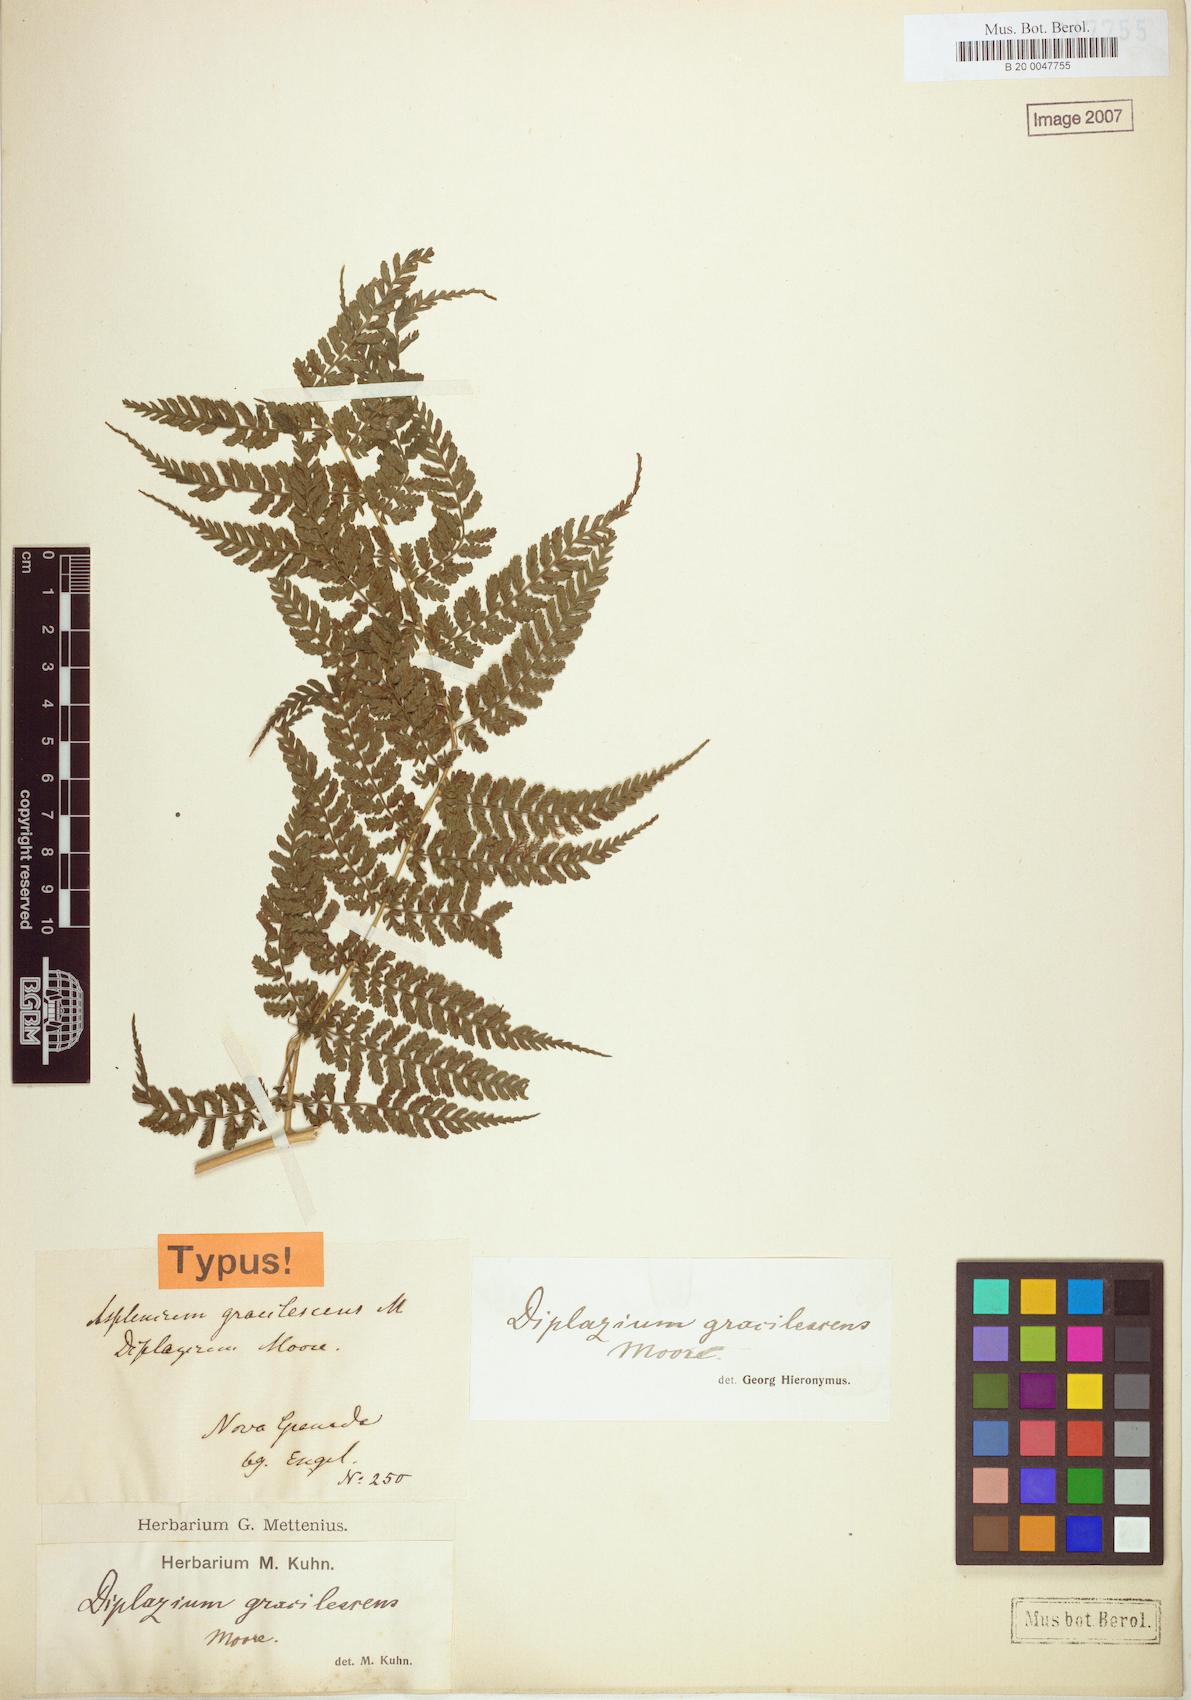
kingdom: Plantae
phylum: Tracheophyta
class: Polypodiopsida
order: Polypodiales
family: Athyriaceae
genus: Diplazium
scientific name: Diplazium gracilescens
